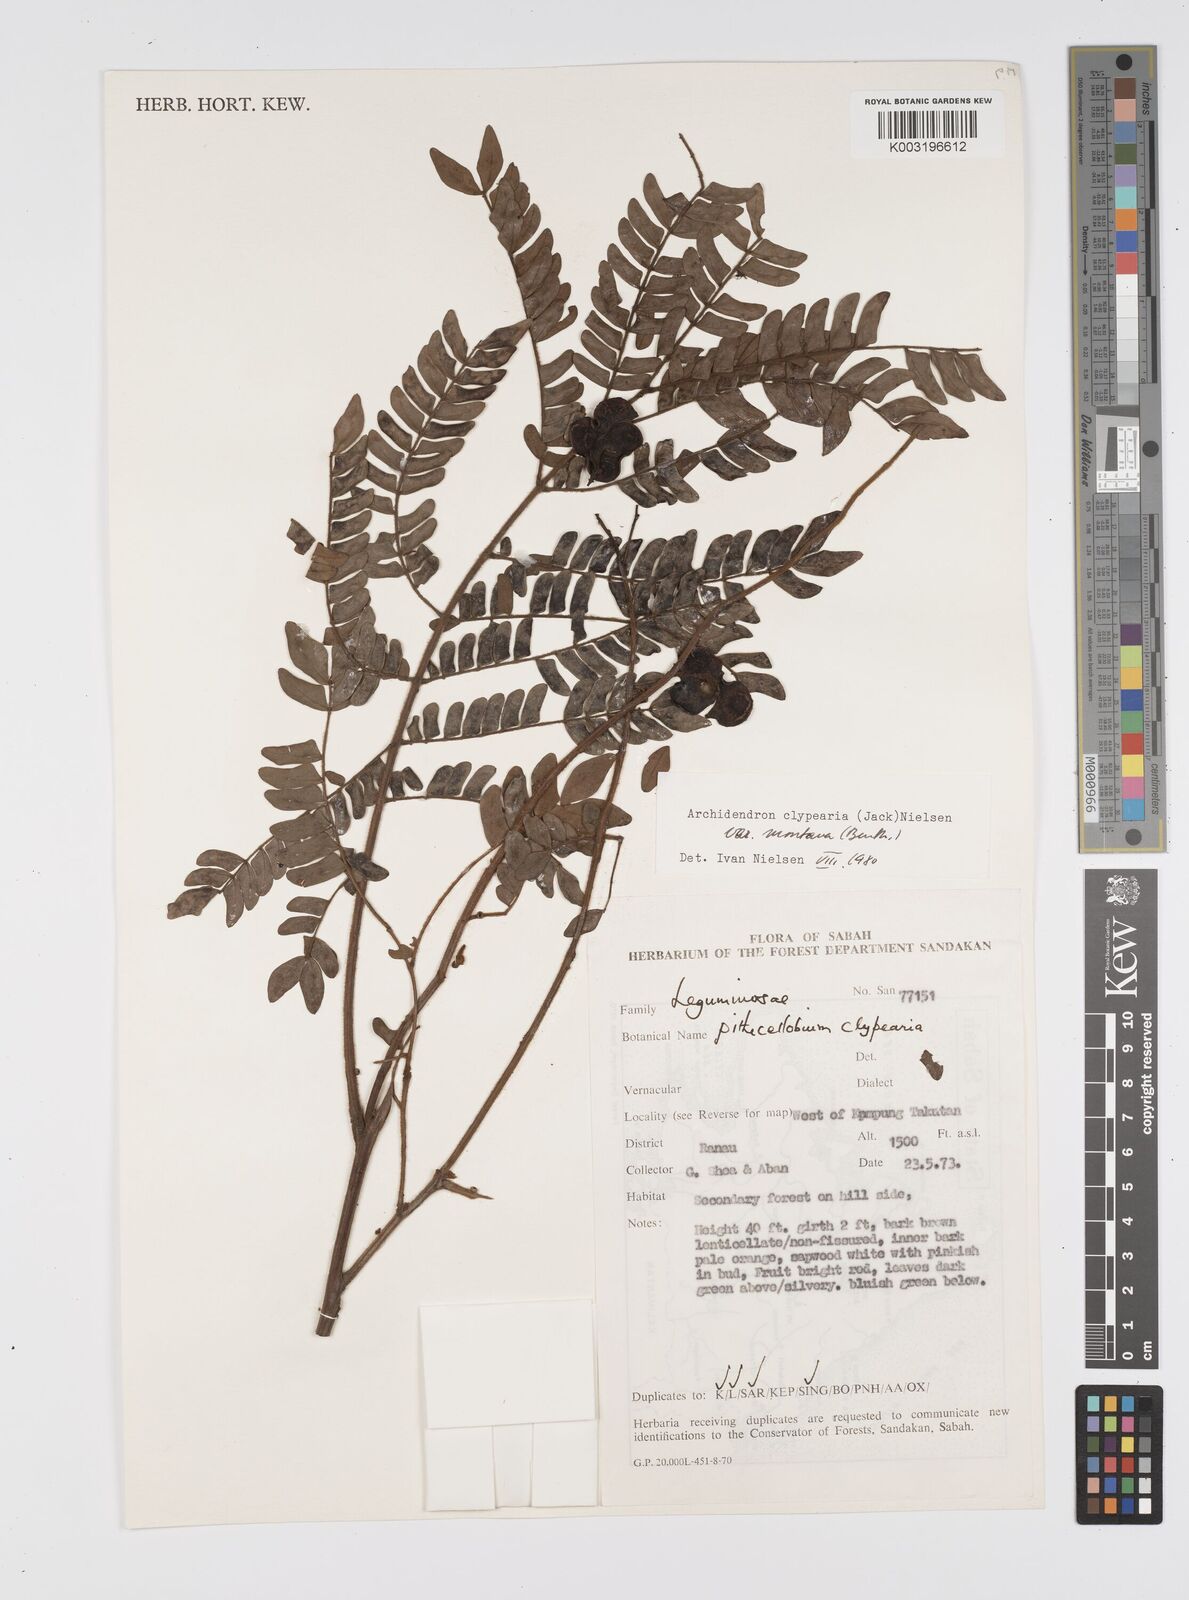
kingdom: Plantae
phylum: Tracheophyta
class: Magnoliopsida
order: Fabales
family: Fabaceae
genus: Archidendron
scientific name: Archidendron clypearia
